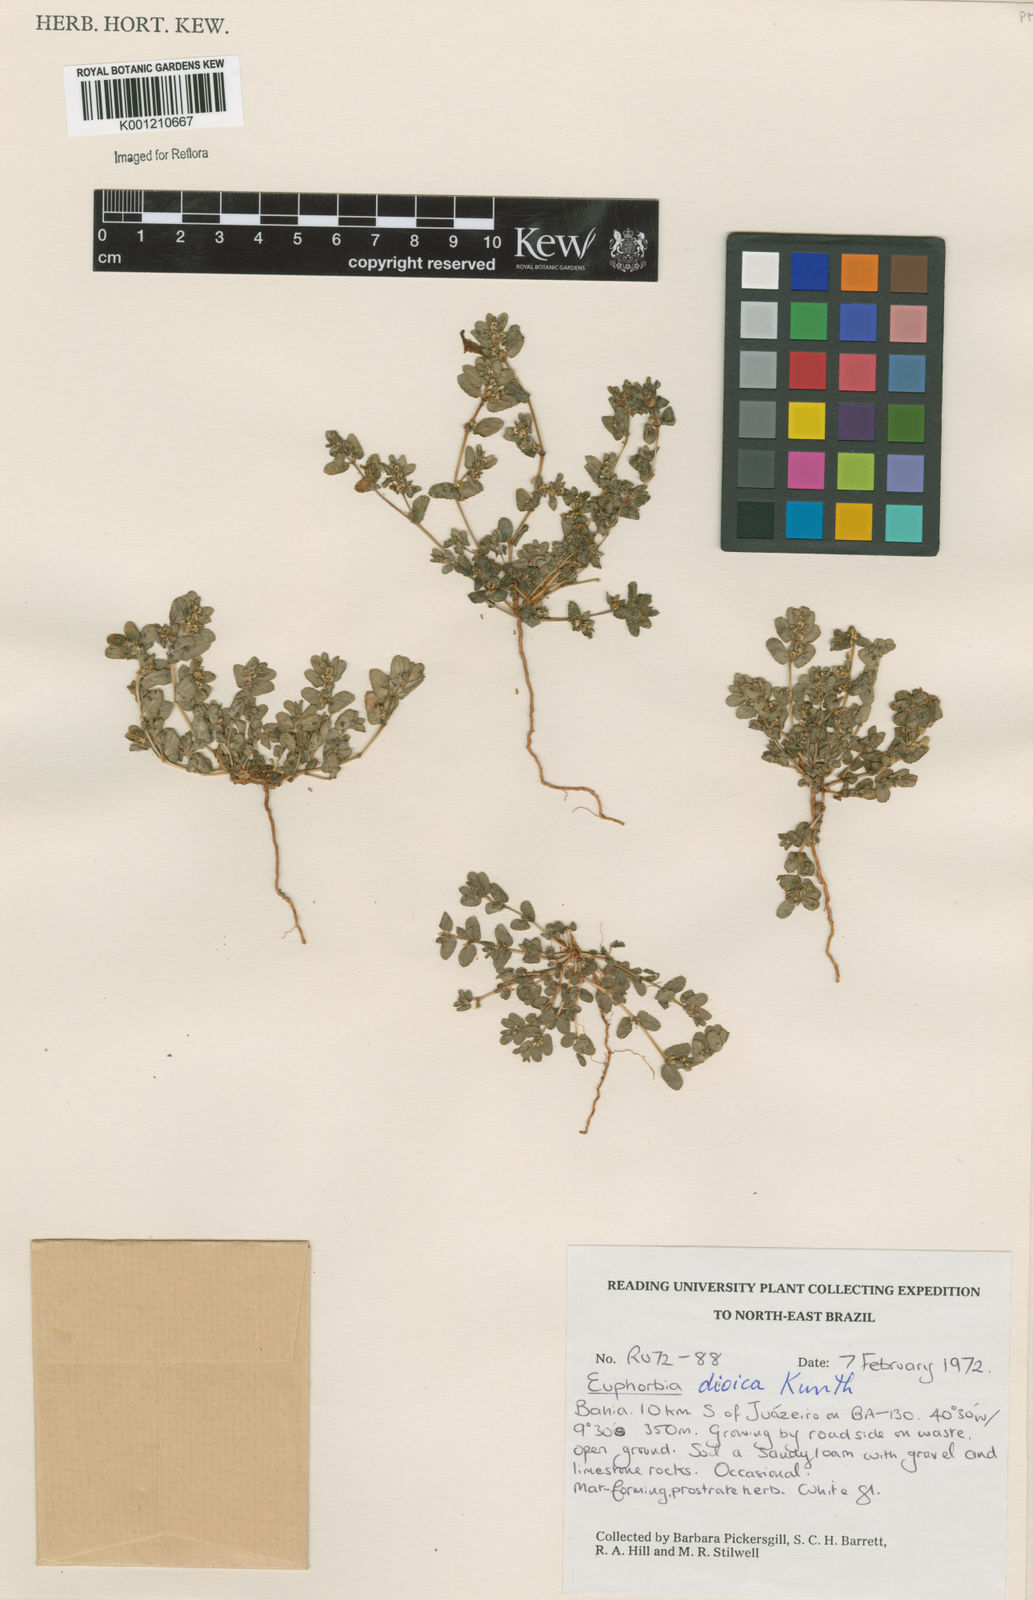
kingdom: Plantae
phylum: Tracheophyta
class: Magnoliopsida
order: Malpighiales
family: Euphorbiaceae
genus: Euphorbia
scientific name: Euphorbia
